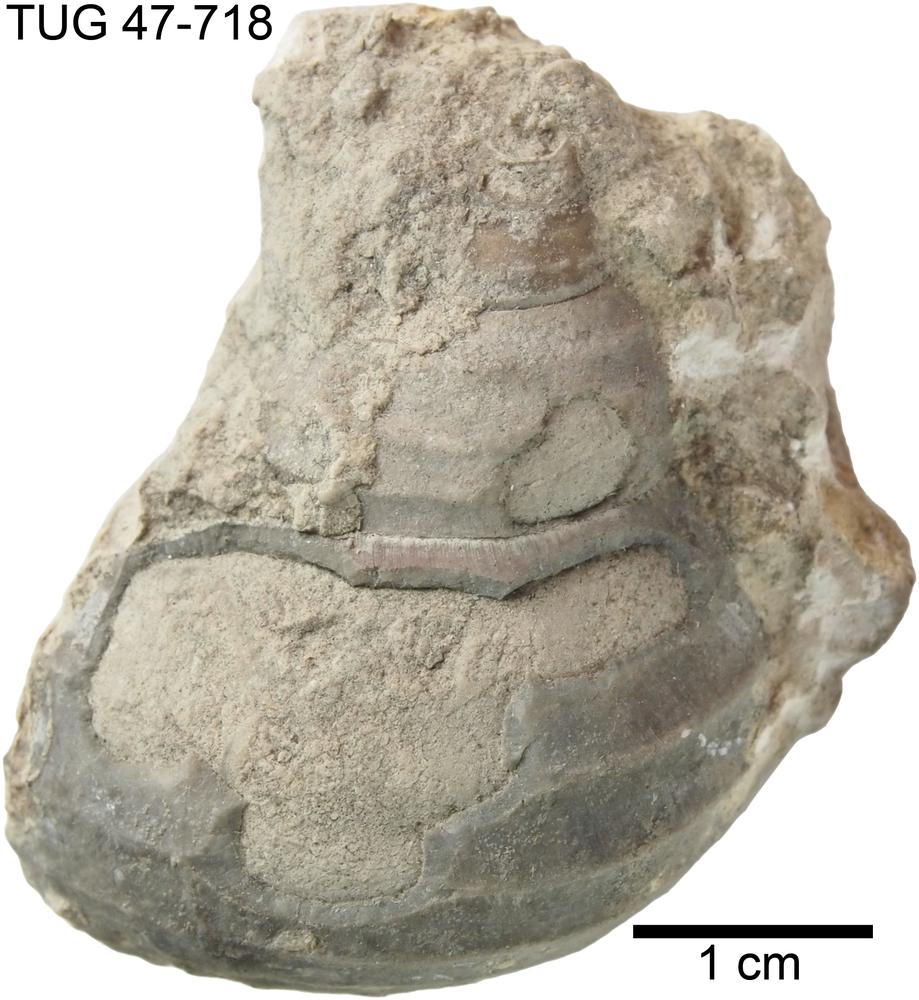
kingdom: Animalia
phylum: Mollusca
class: Gastropoda
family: Platyceratidae
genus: Cyclonema
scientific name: Cyclonema Turbo rupestre
